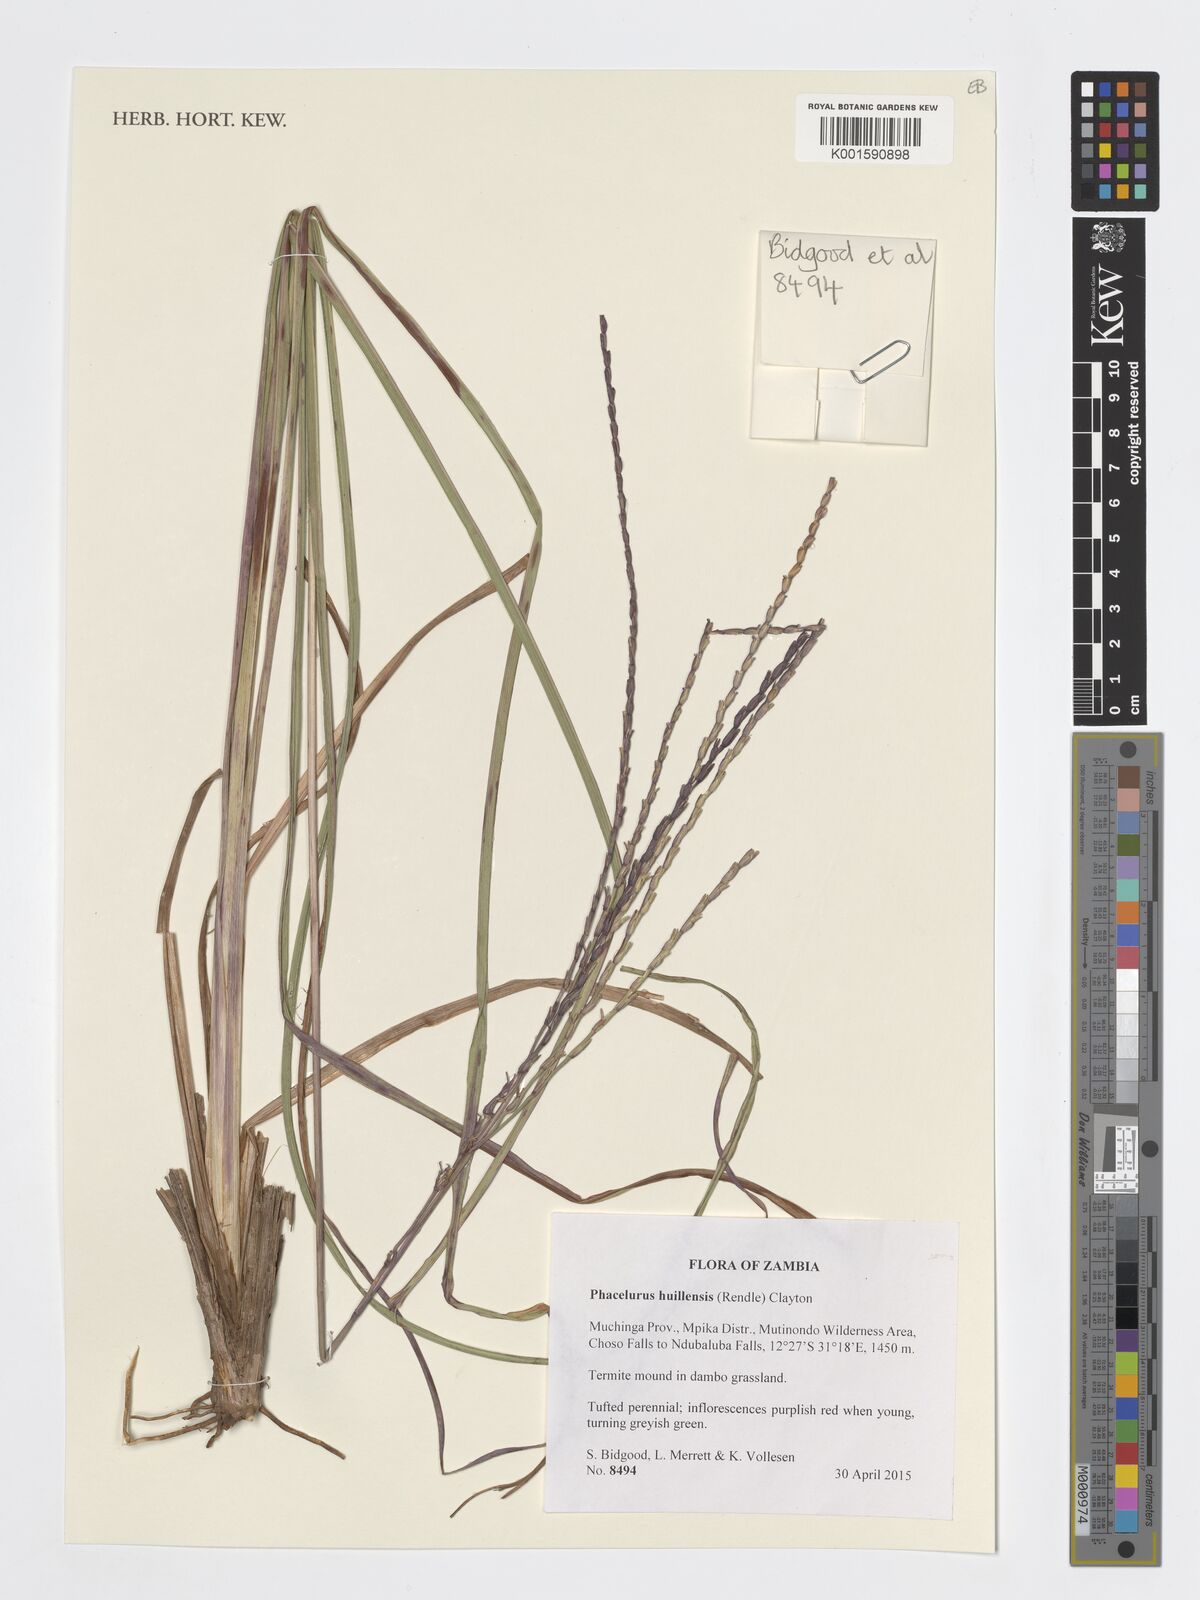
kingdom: Plantae
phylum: Tracheophyta
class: Liliopsida
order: Poales
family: Poaceae
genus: Thyrsia
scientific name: Thyrsia huillensis
